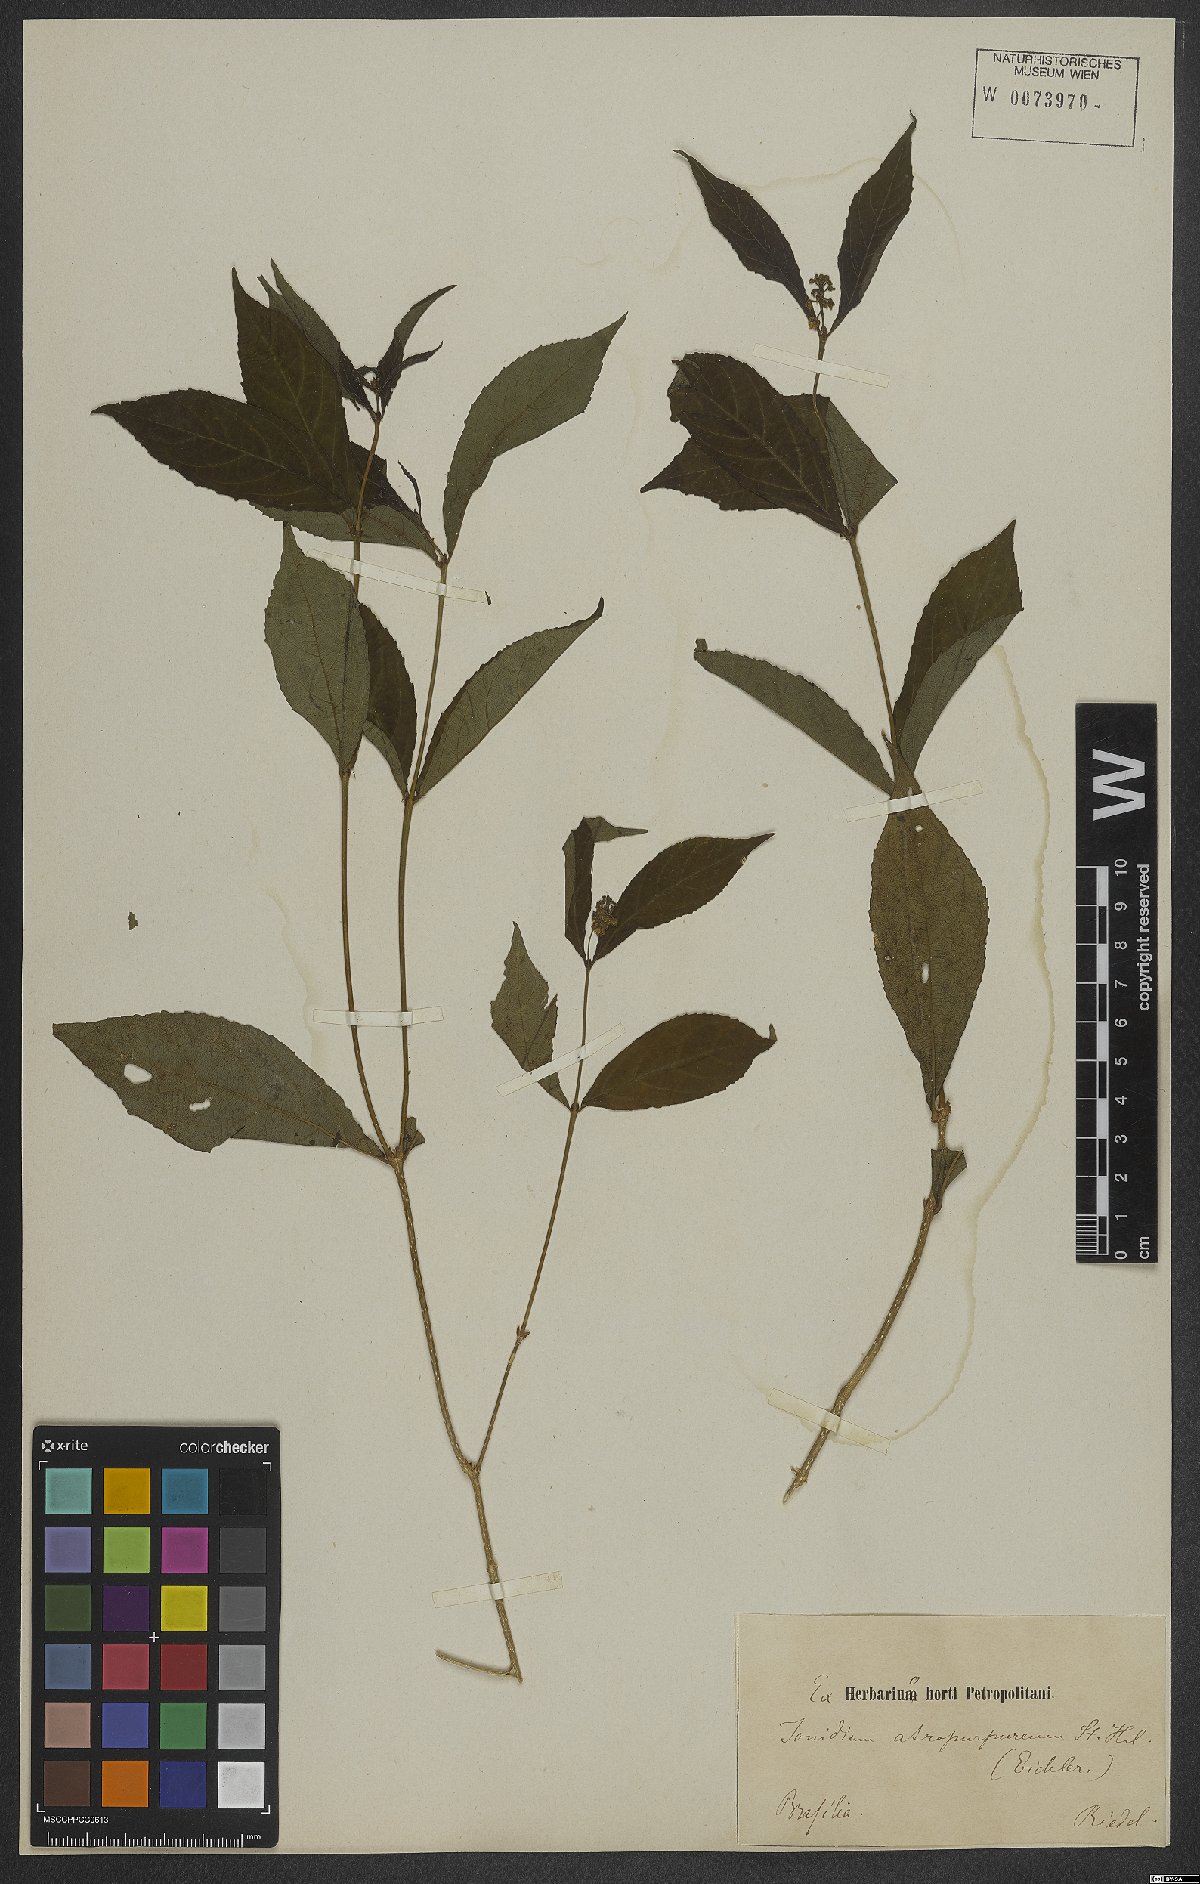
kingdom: Plantae
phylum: Tracheophyta
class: Magnoliopsida
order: Malpighiales
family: Violaceae
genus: Pombalia
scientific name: Pombalia atropurpurea
